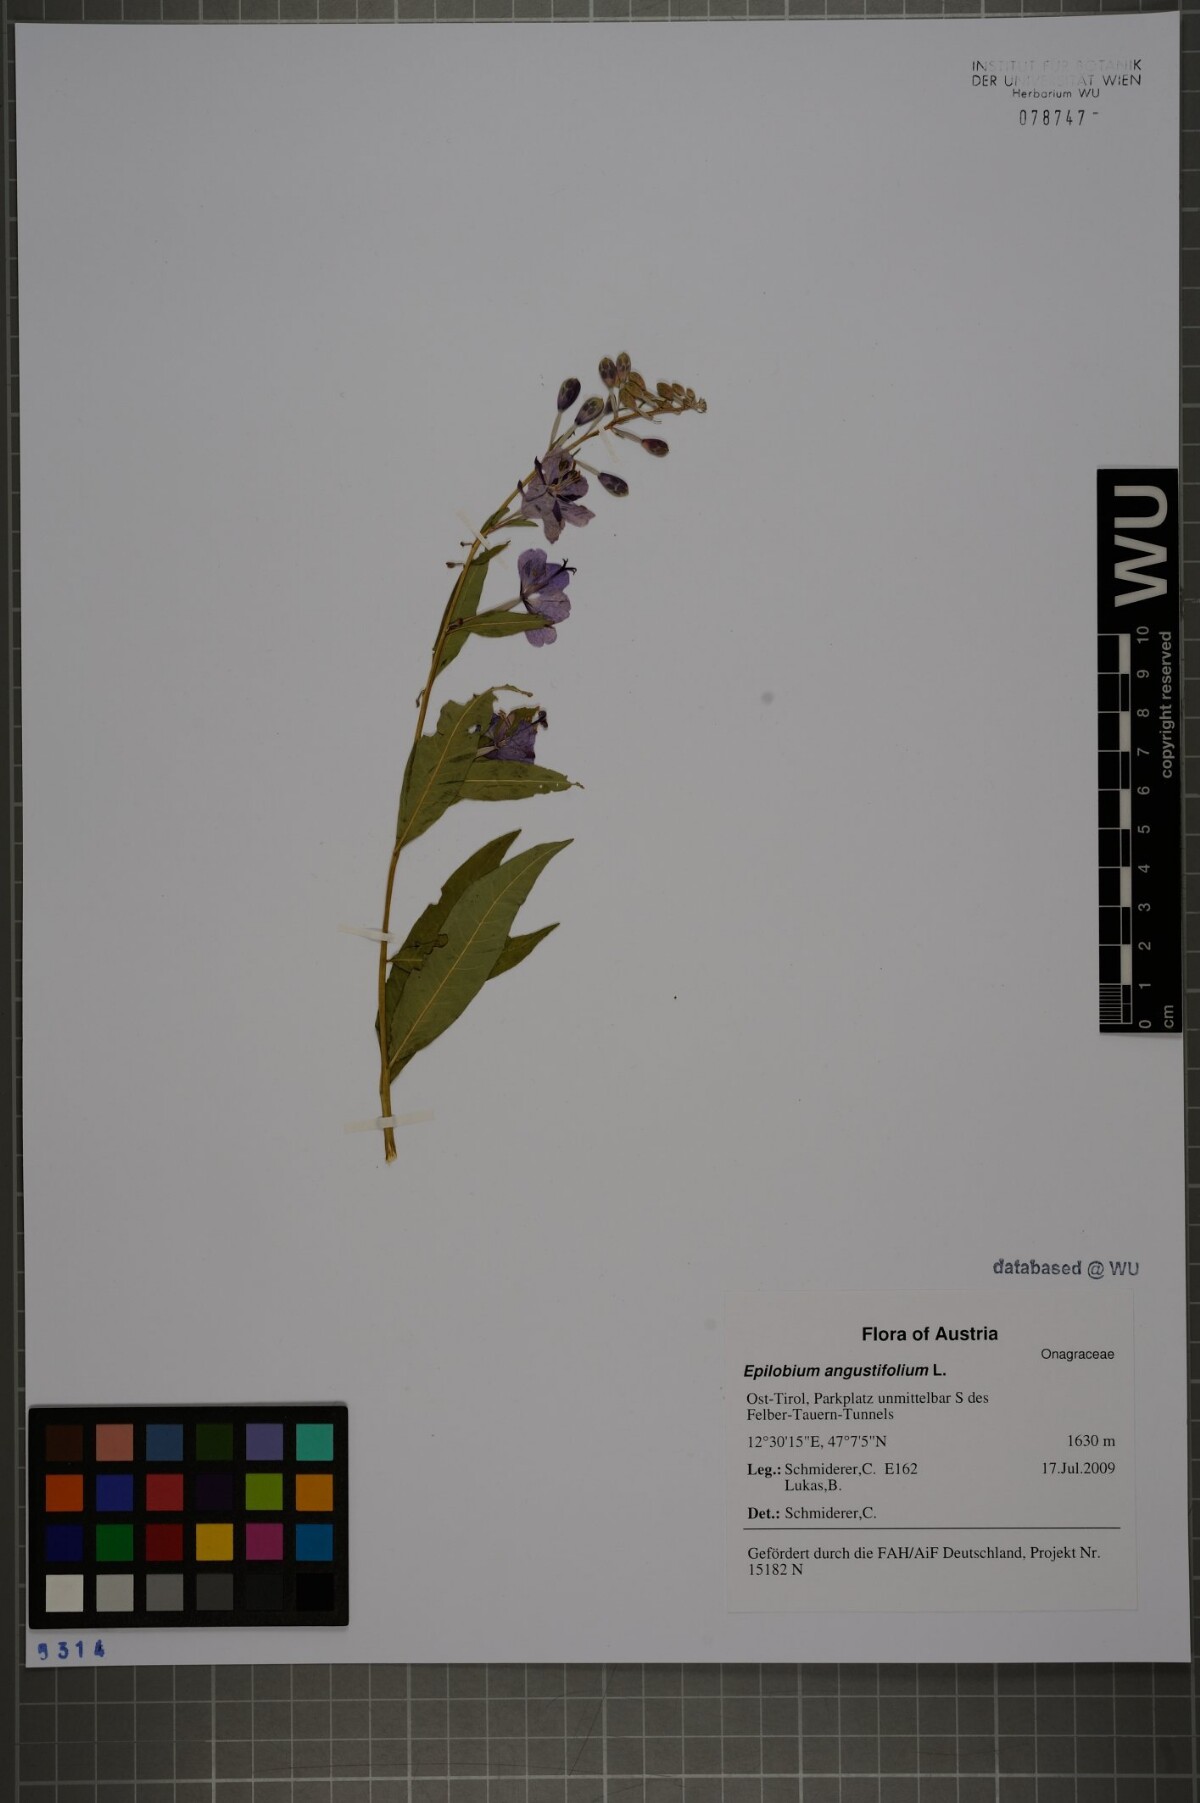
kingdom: Plantae
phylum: Tracheophyta
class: Magnoliopsida
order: Myrtales
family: Onagraceae
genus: Chamaenerion
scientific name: Chamaenerion angustifolium
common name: Fireweed
